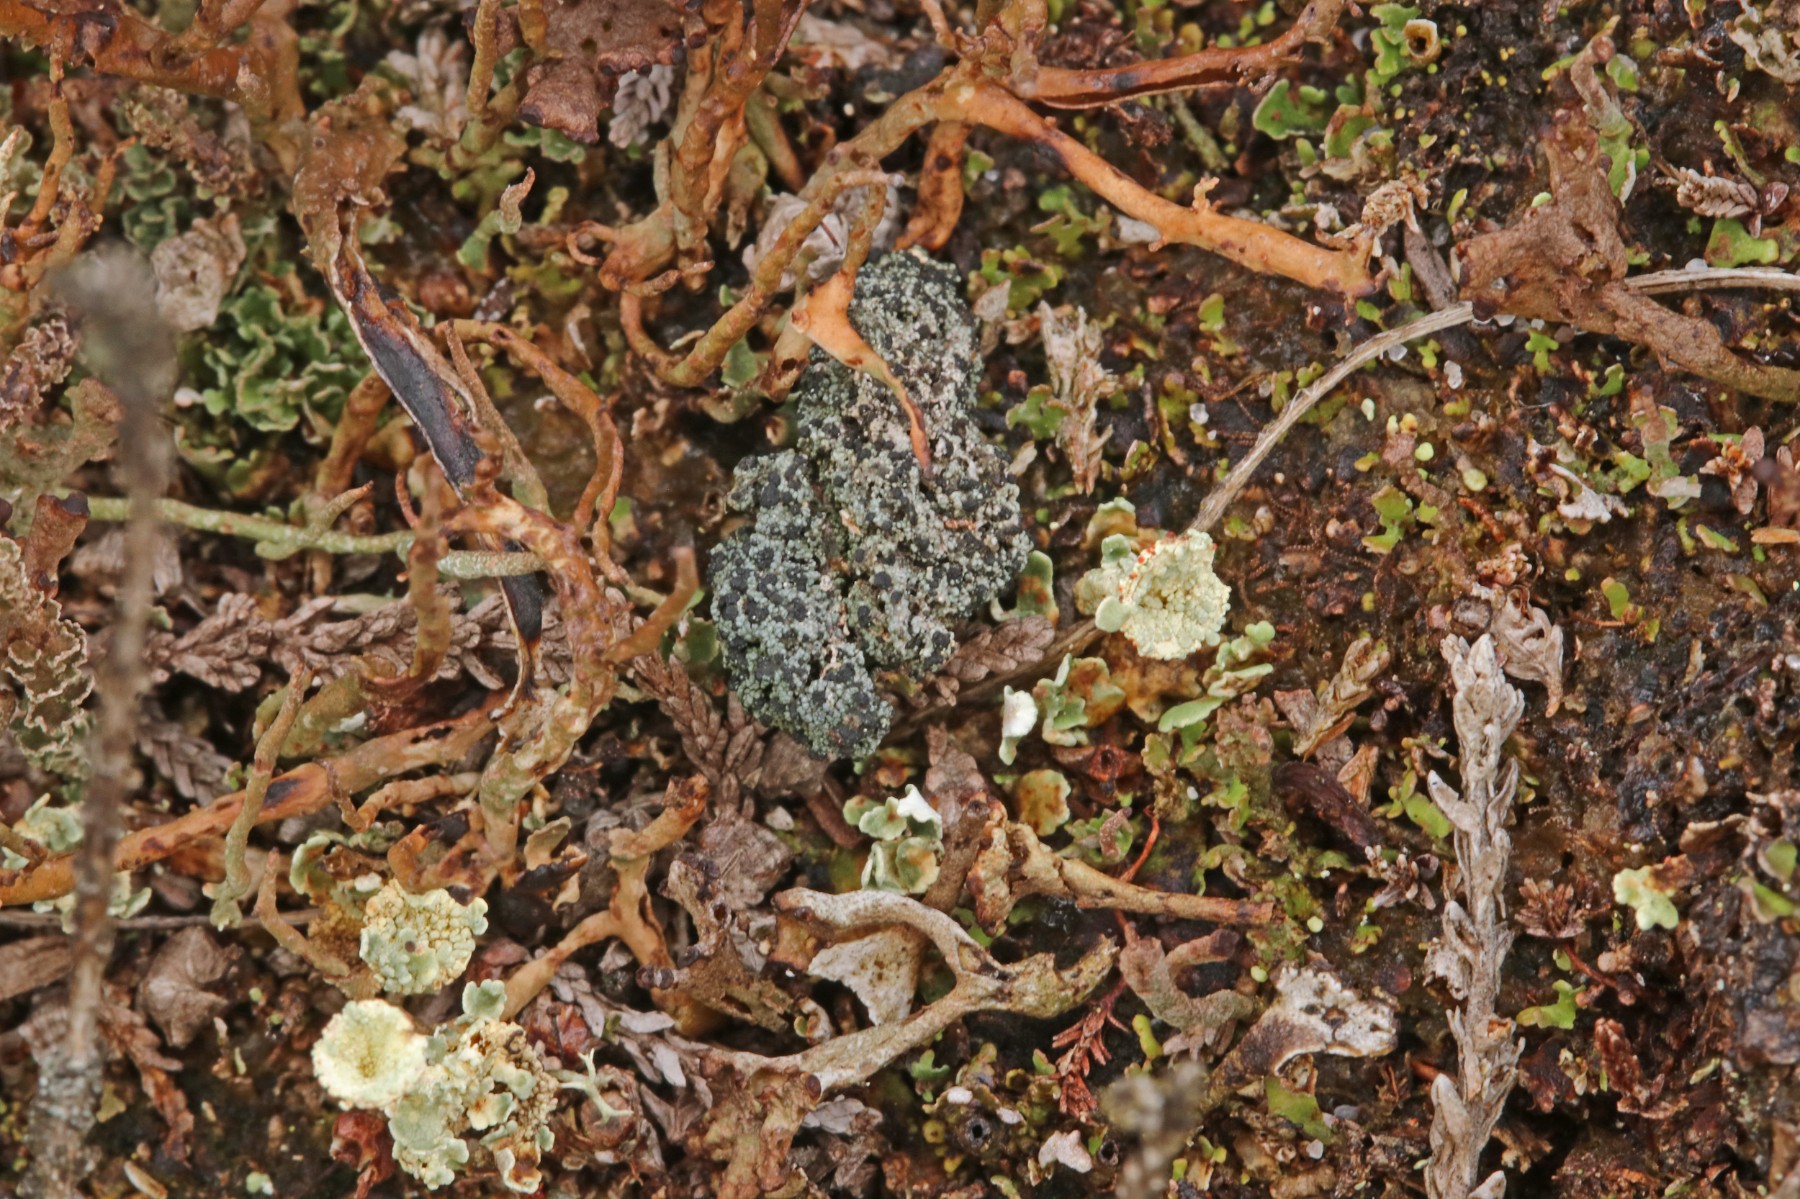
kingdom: Fungi
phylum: Ascomycota
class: Lecanoromycetes
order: Lecanorales
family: Byssolomataceae
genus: Micarea
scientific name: Micarea lignaria
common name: tørve-knaplav
